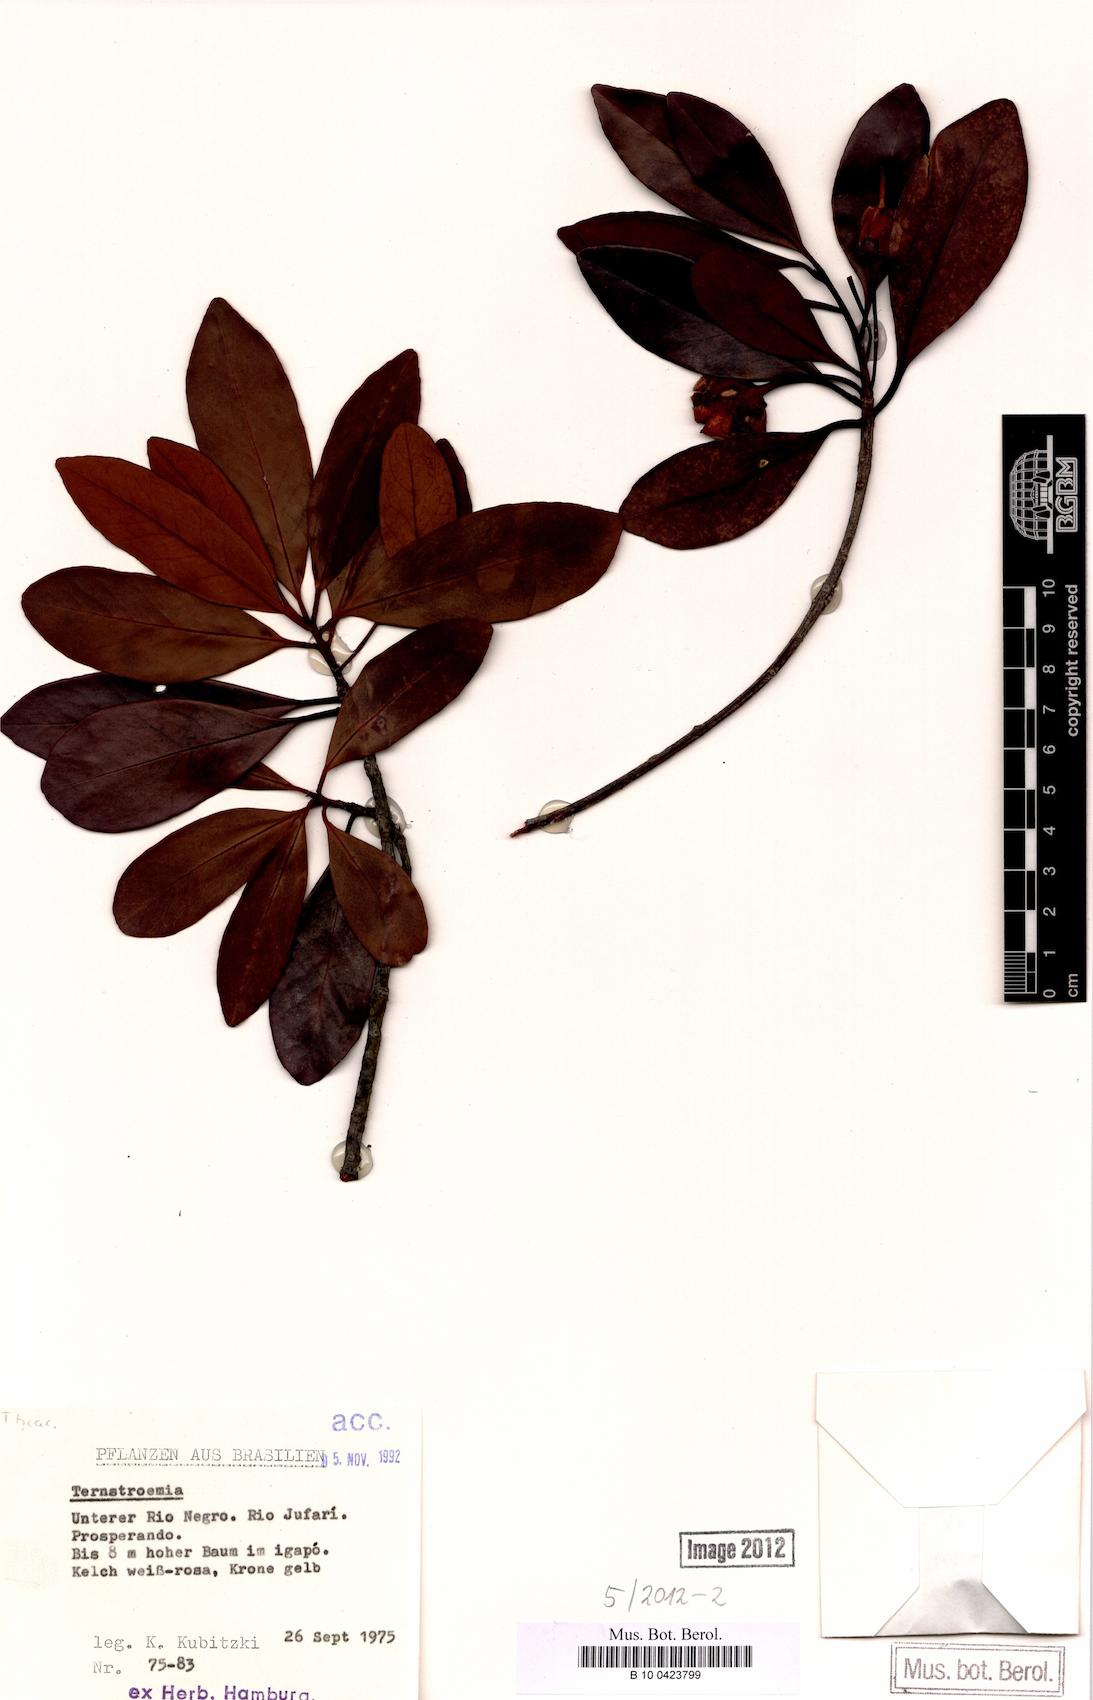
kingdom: Plantae
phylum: Tracheophyta
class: Magnoliopsida
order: Ericales
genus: Ternstroemia
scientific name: Ternstroemia
